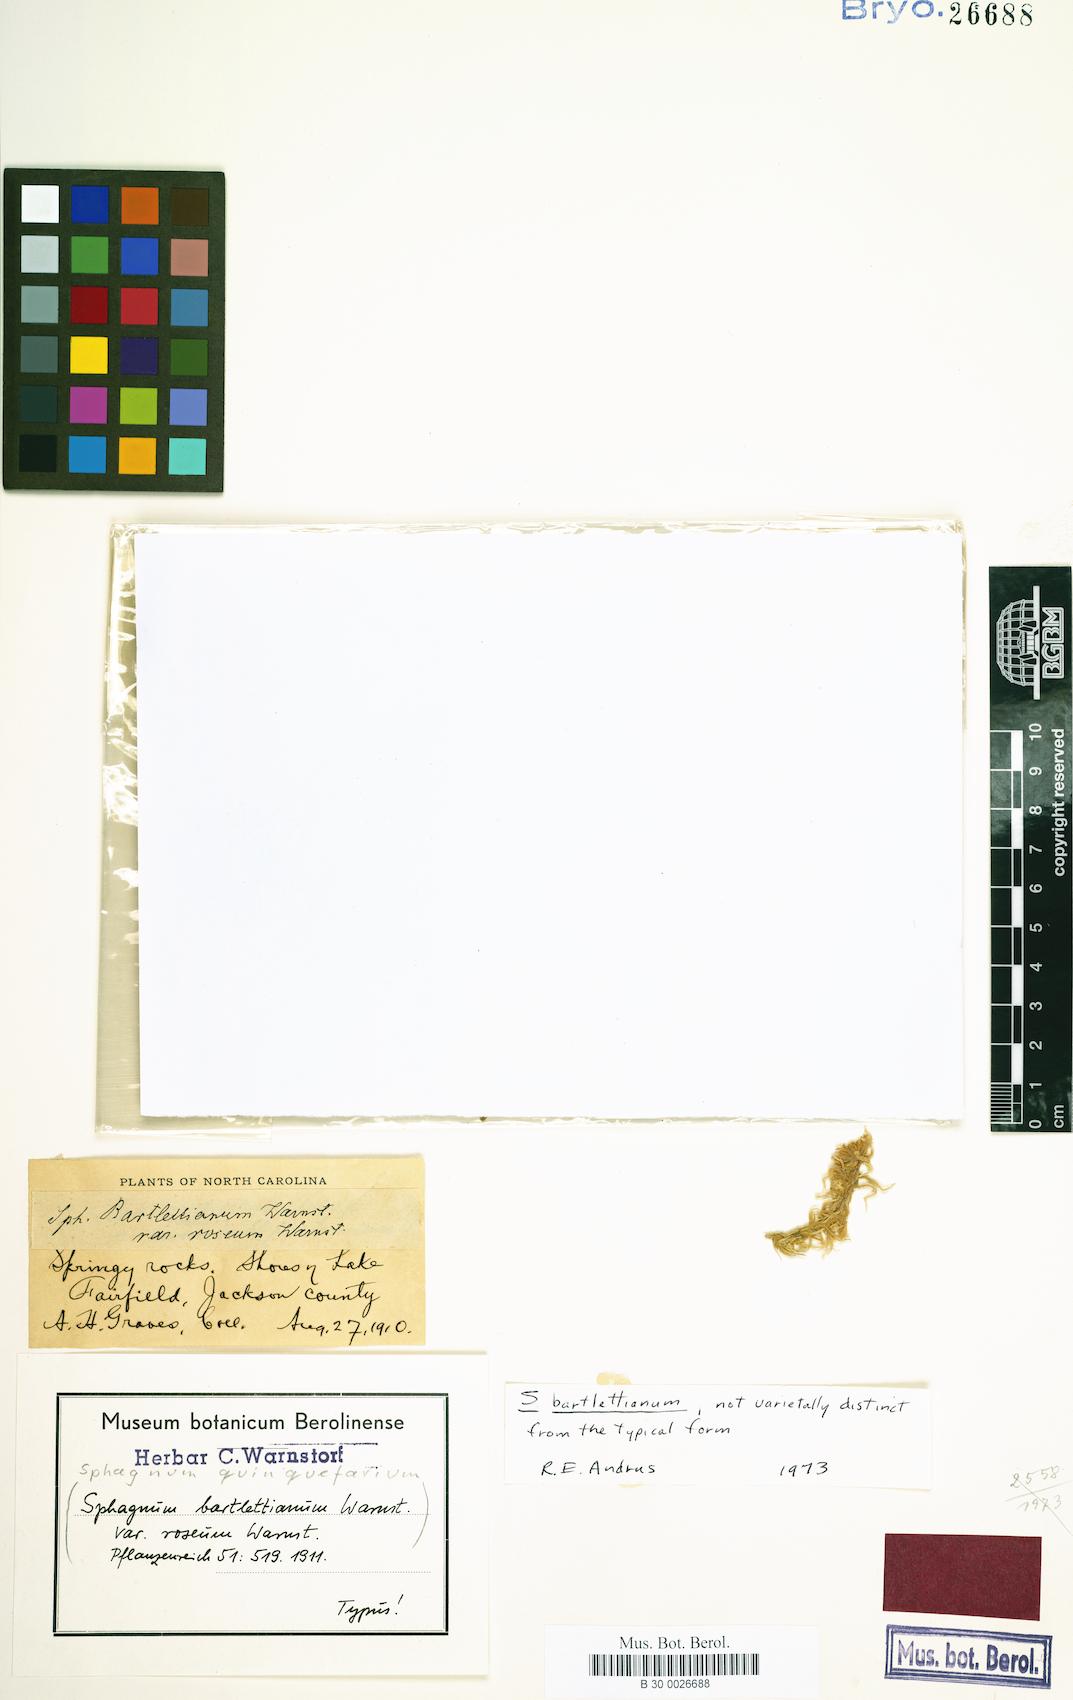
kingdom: Plantae
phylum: Bryophyta
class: Sphagnopsida
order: Sphagnales
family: Sphagnaceae
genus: Sphagnum
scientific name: Sphagnum
